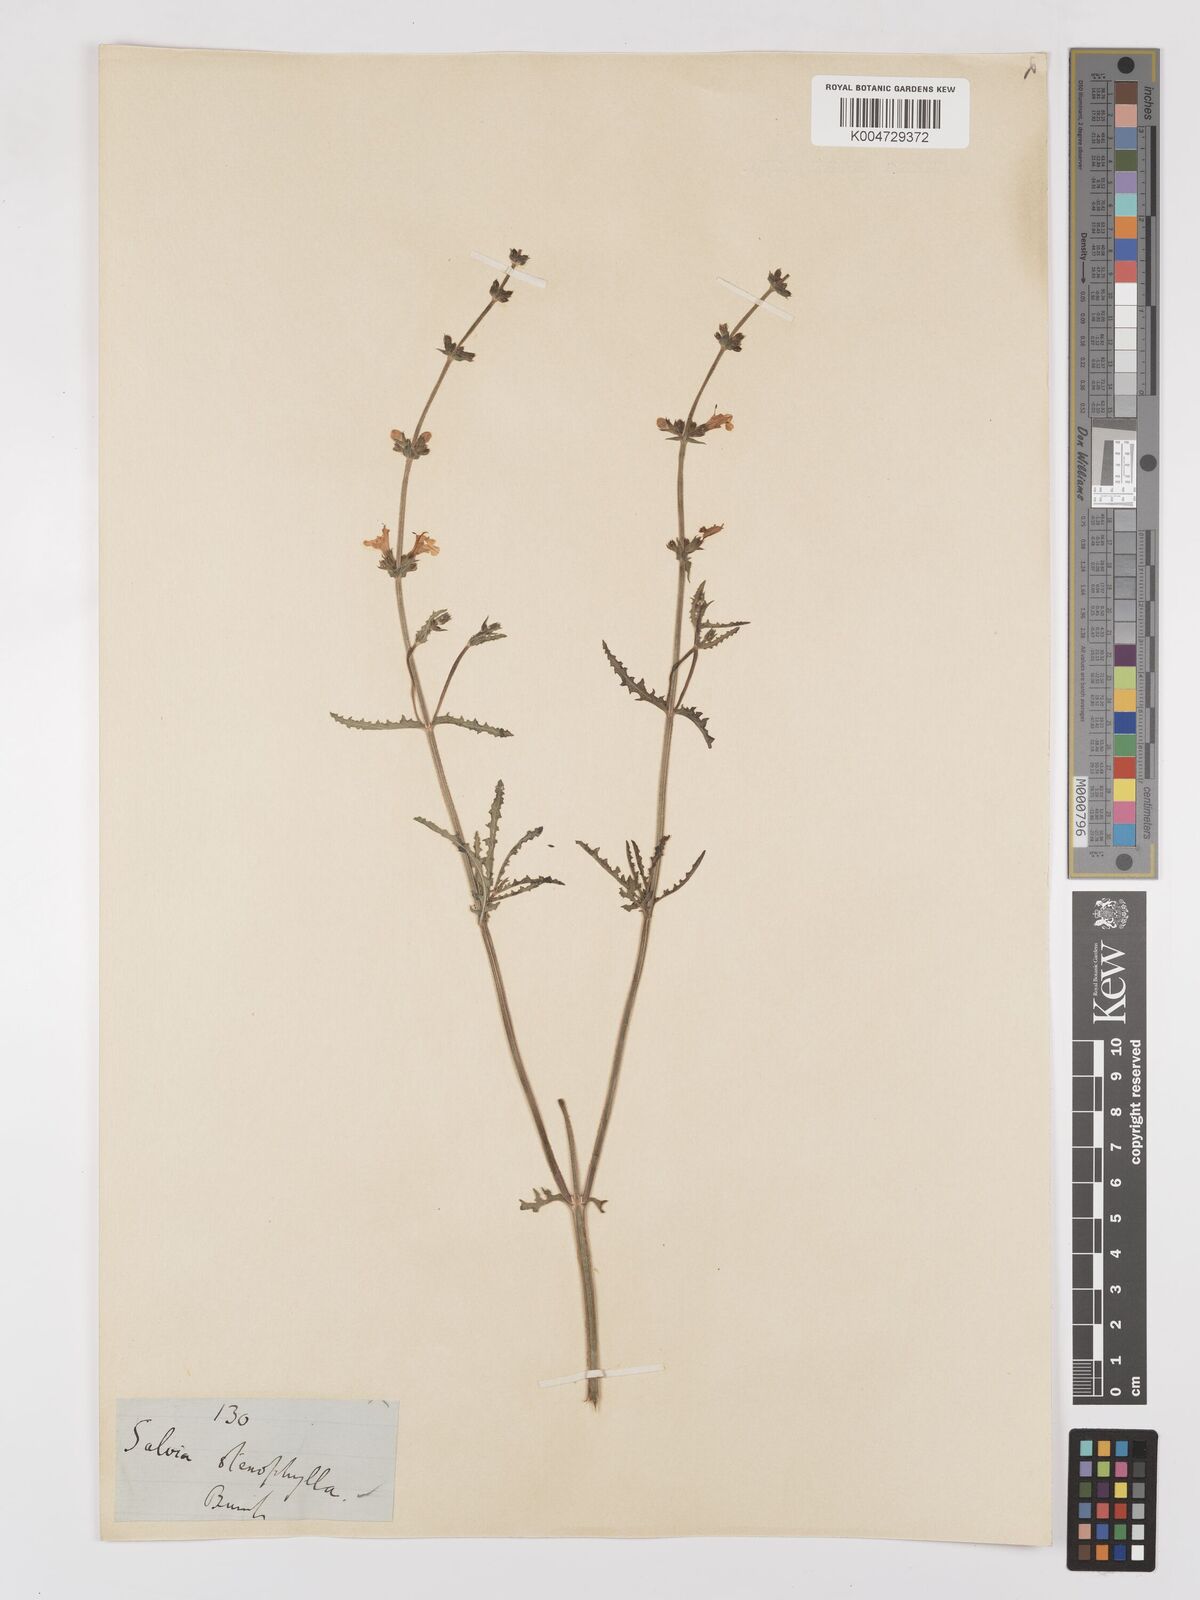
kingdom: Plantae
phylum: Tracheophyta
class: Magnoliopsida
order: Lamiales
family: Lamiaceae
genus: Salvia
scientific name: Salvia stenophylla
